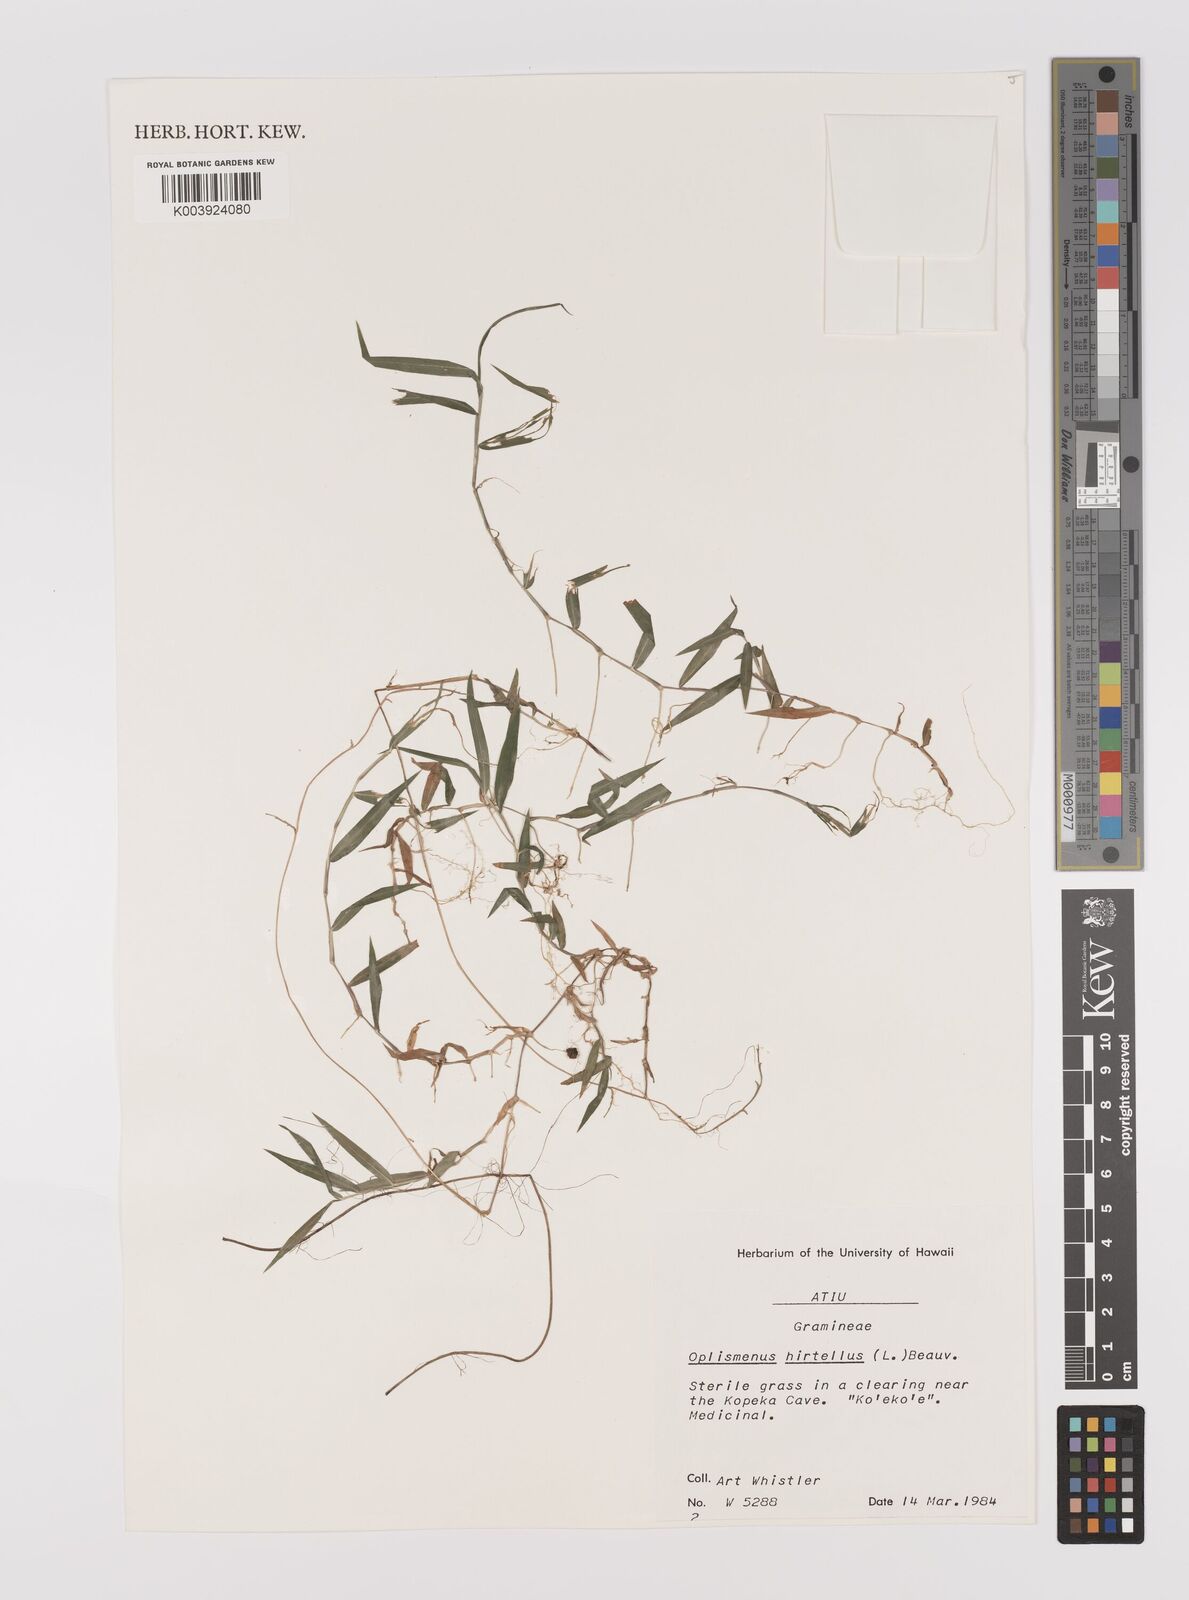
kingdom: Plantae
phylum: Tracheophyta
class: Liliopsida
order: Poales
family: Poaceae
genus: Oplismenus
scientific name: Oplismenus hirtellus
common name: Basketgrass
